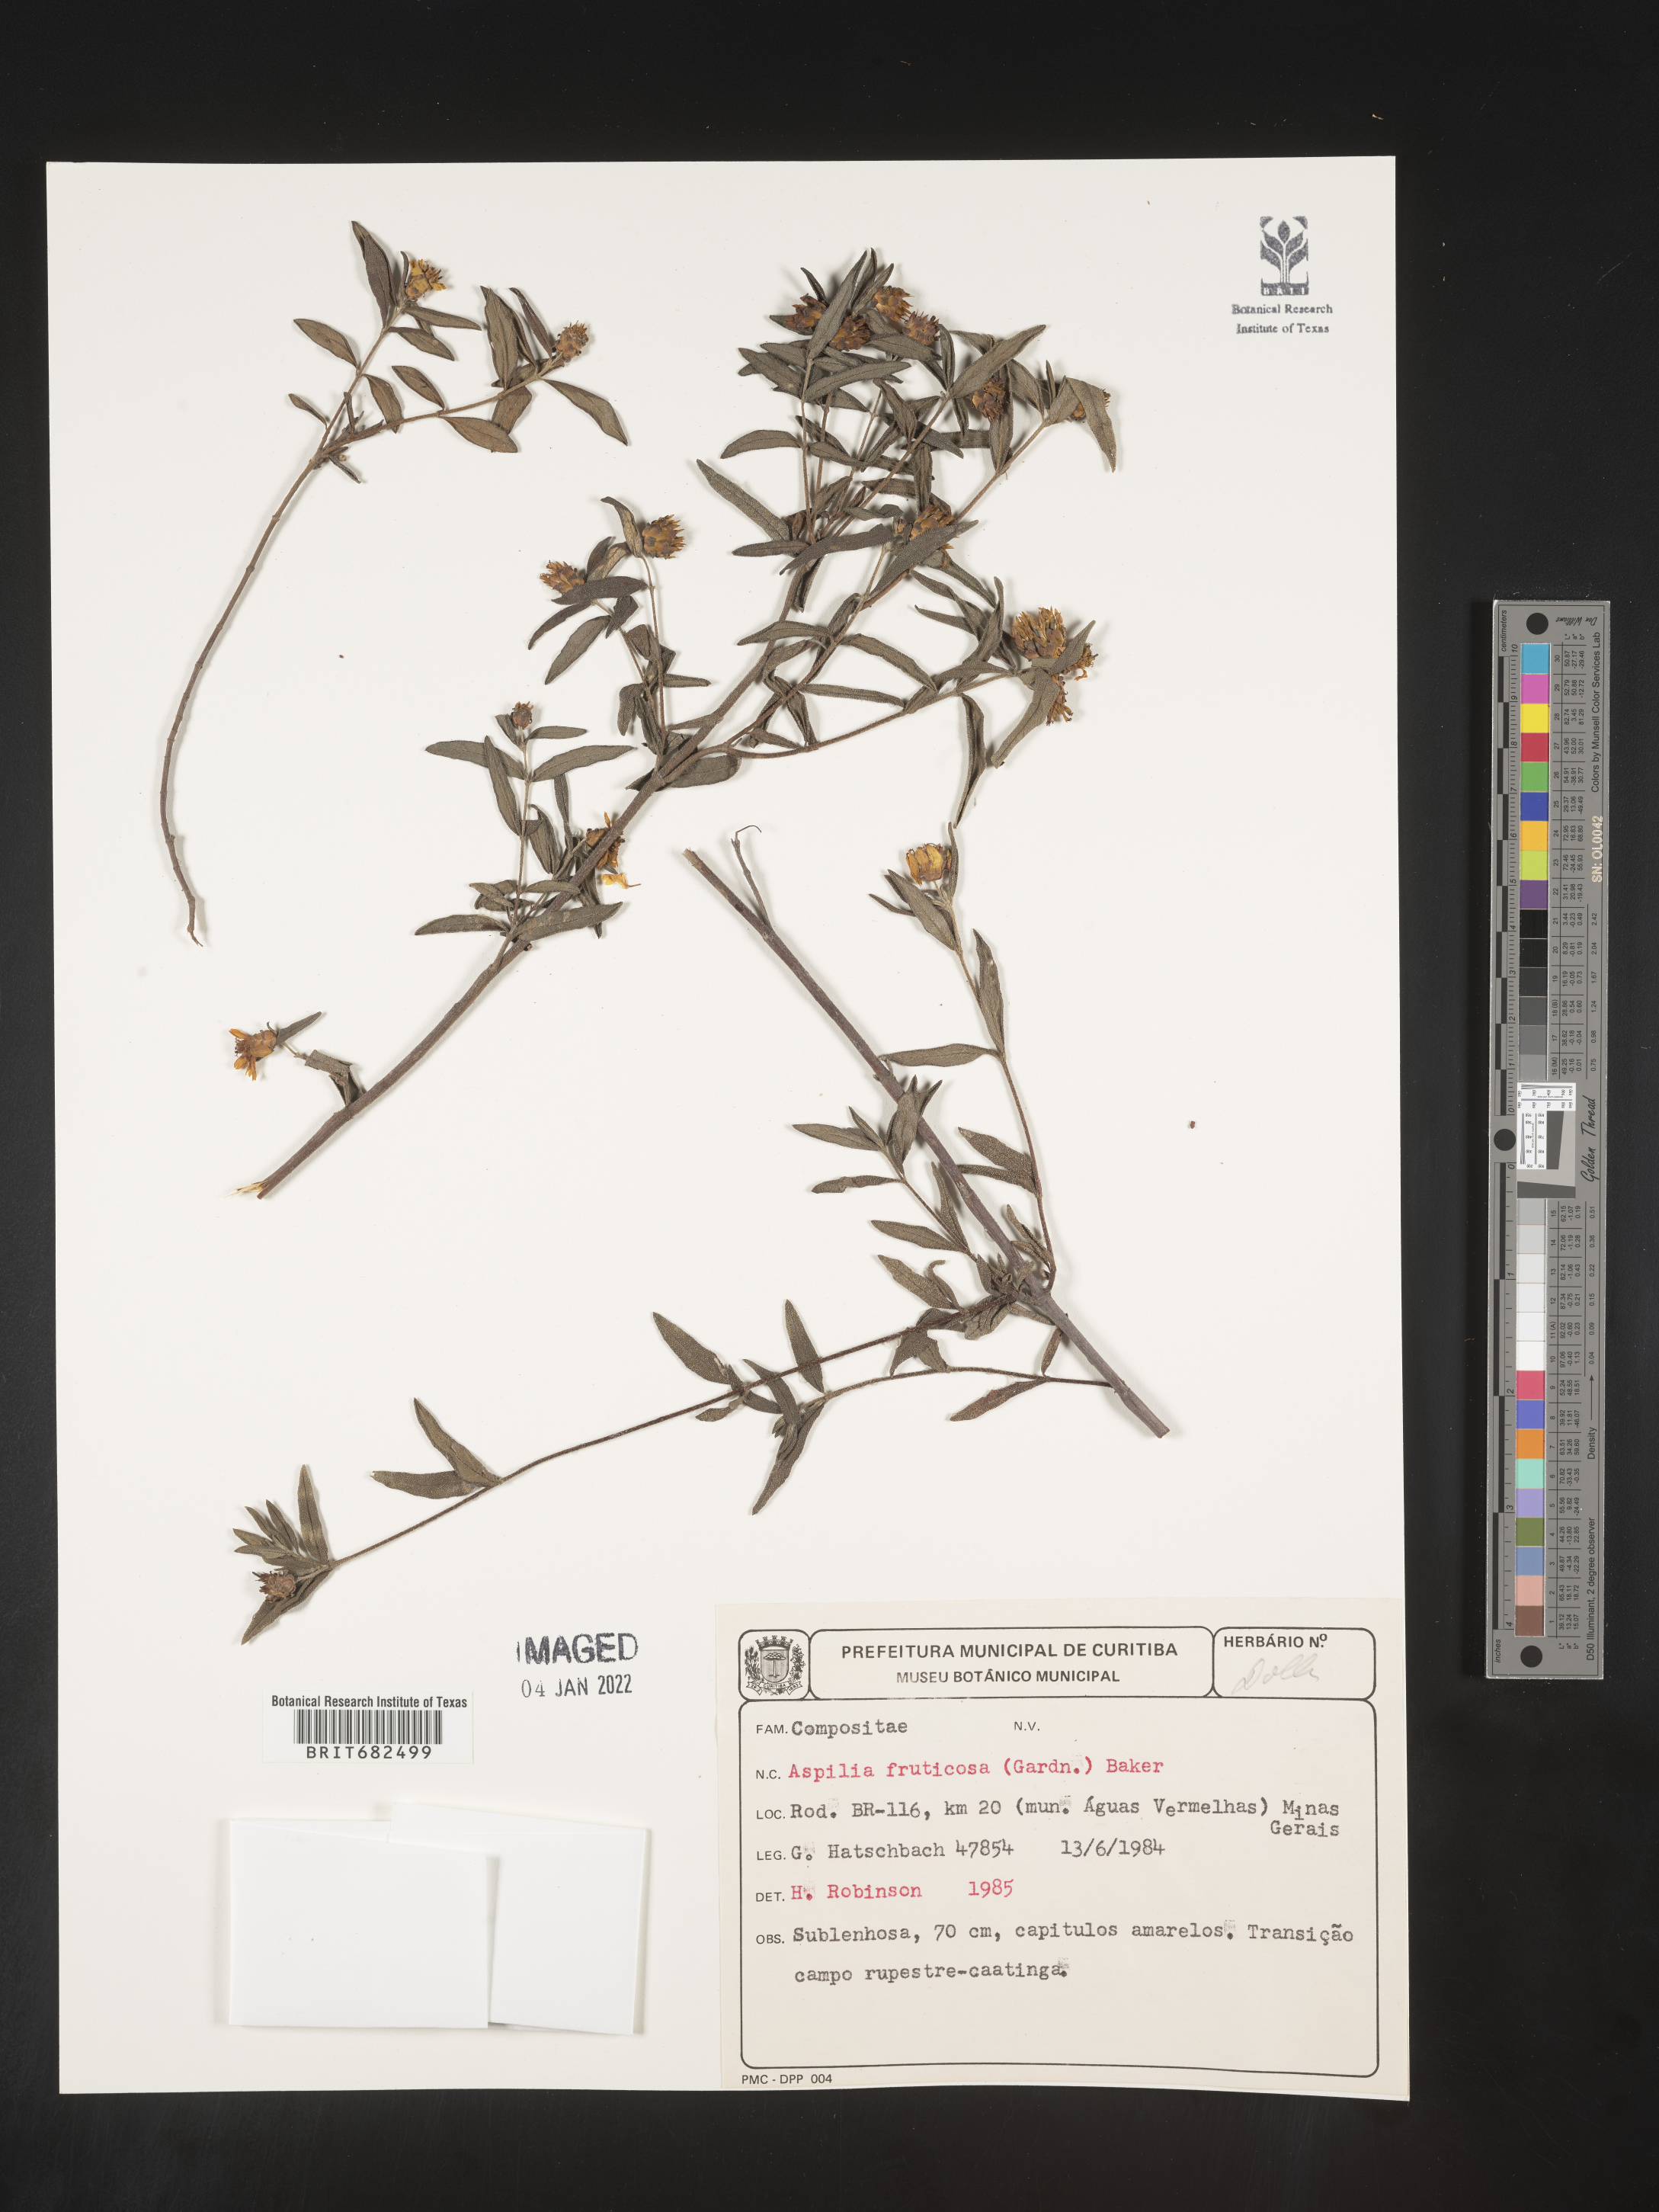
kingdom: Plantae
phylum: Tracheophyta
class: Magnoliopsida
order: Asterales
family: Asteraceae
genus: Aspilia
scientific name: Aspilia
